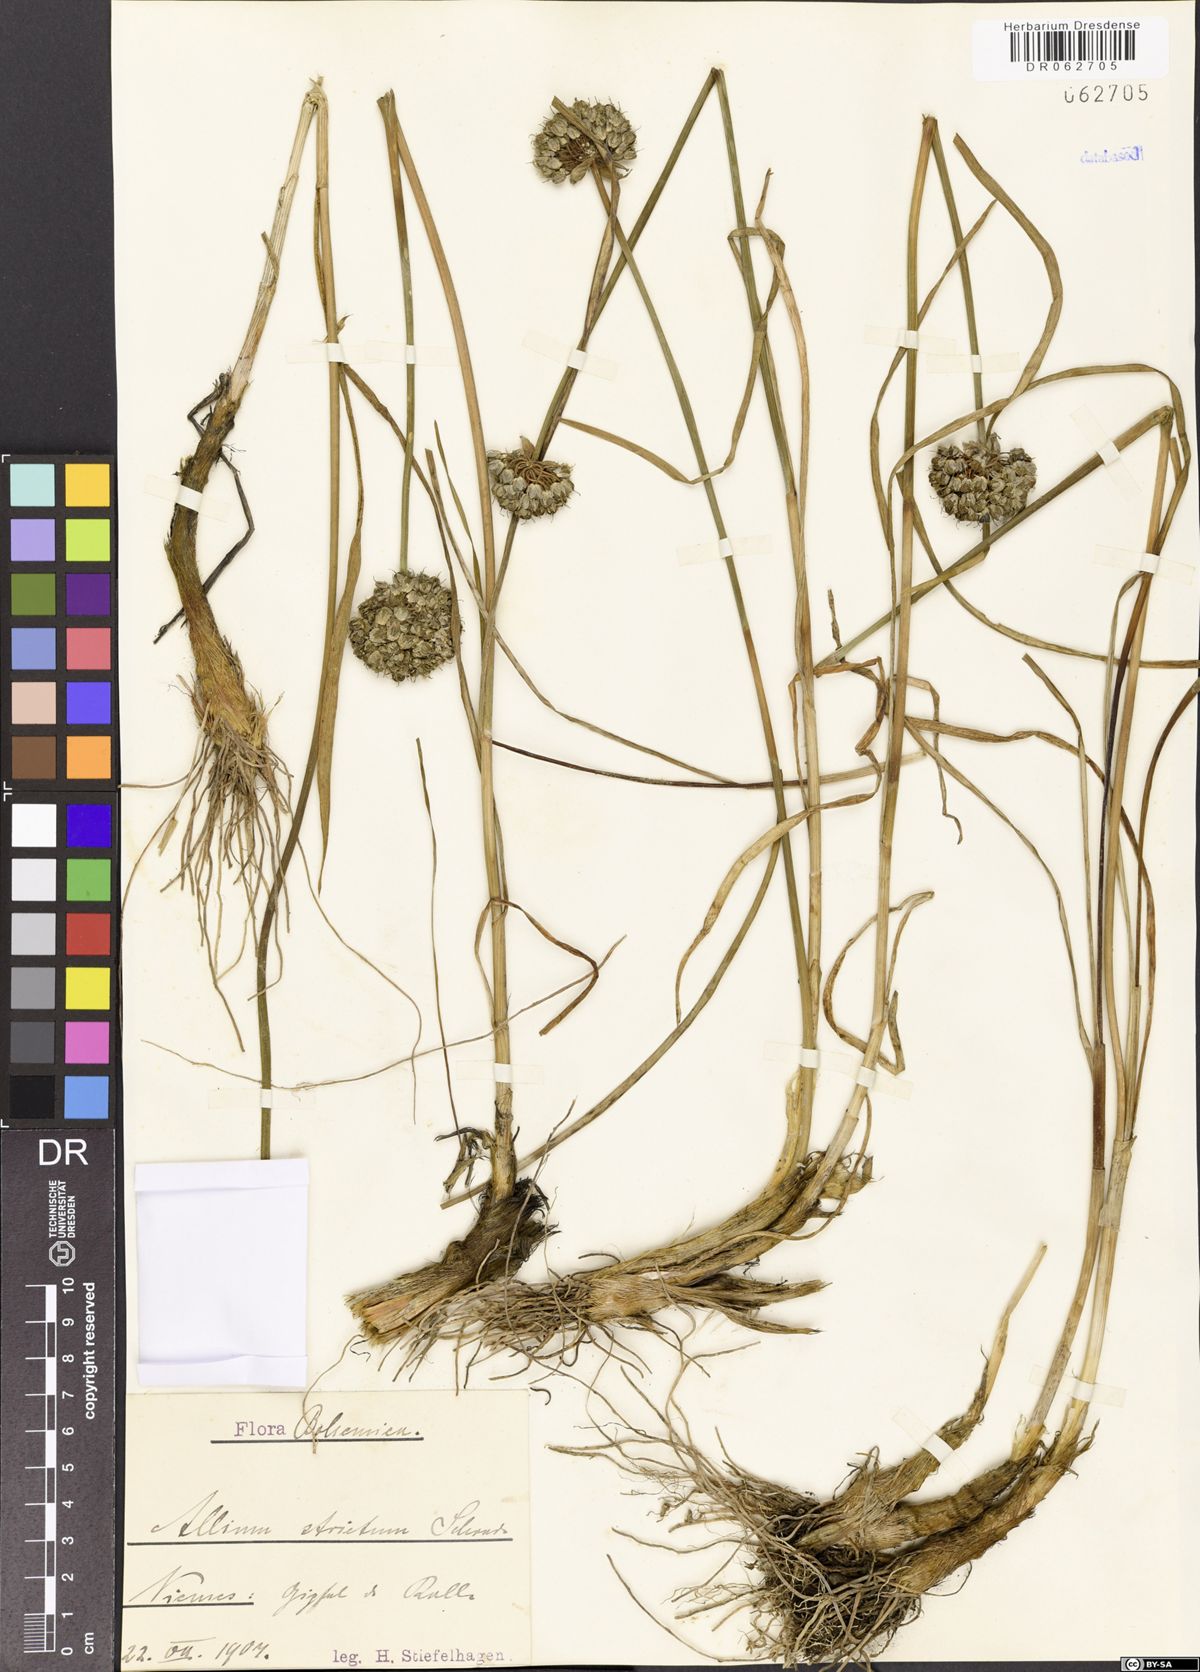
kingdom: Plantae
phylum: Tracheophyta
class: Liliopsida
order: Asparagales
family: Amaryllidaceae
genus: Allium
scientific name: Allium strictum
